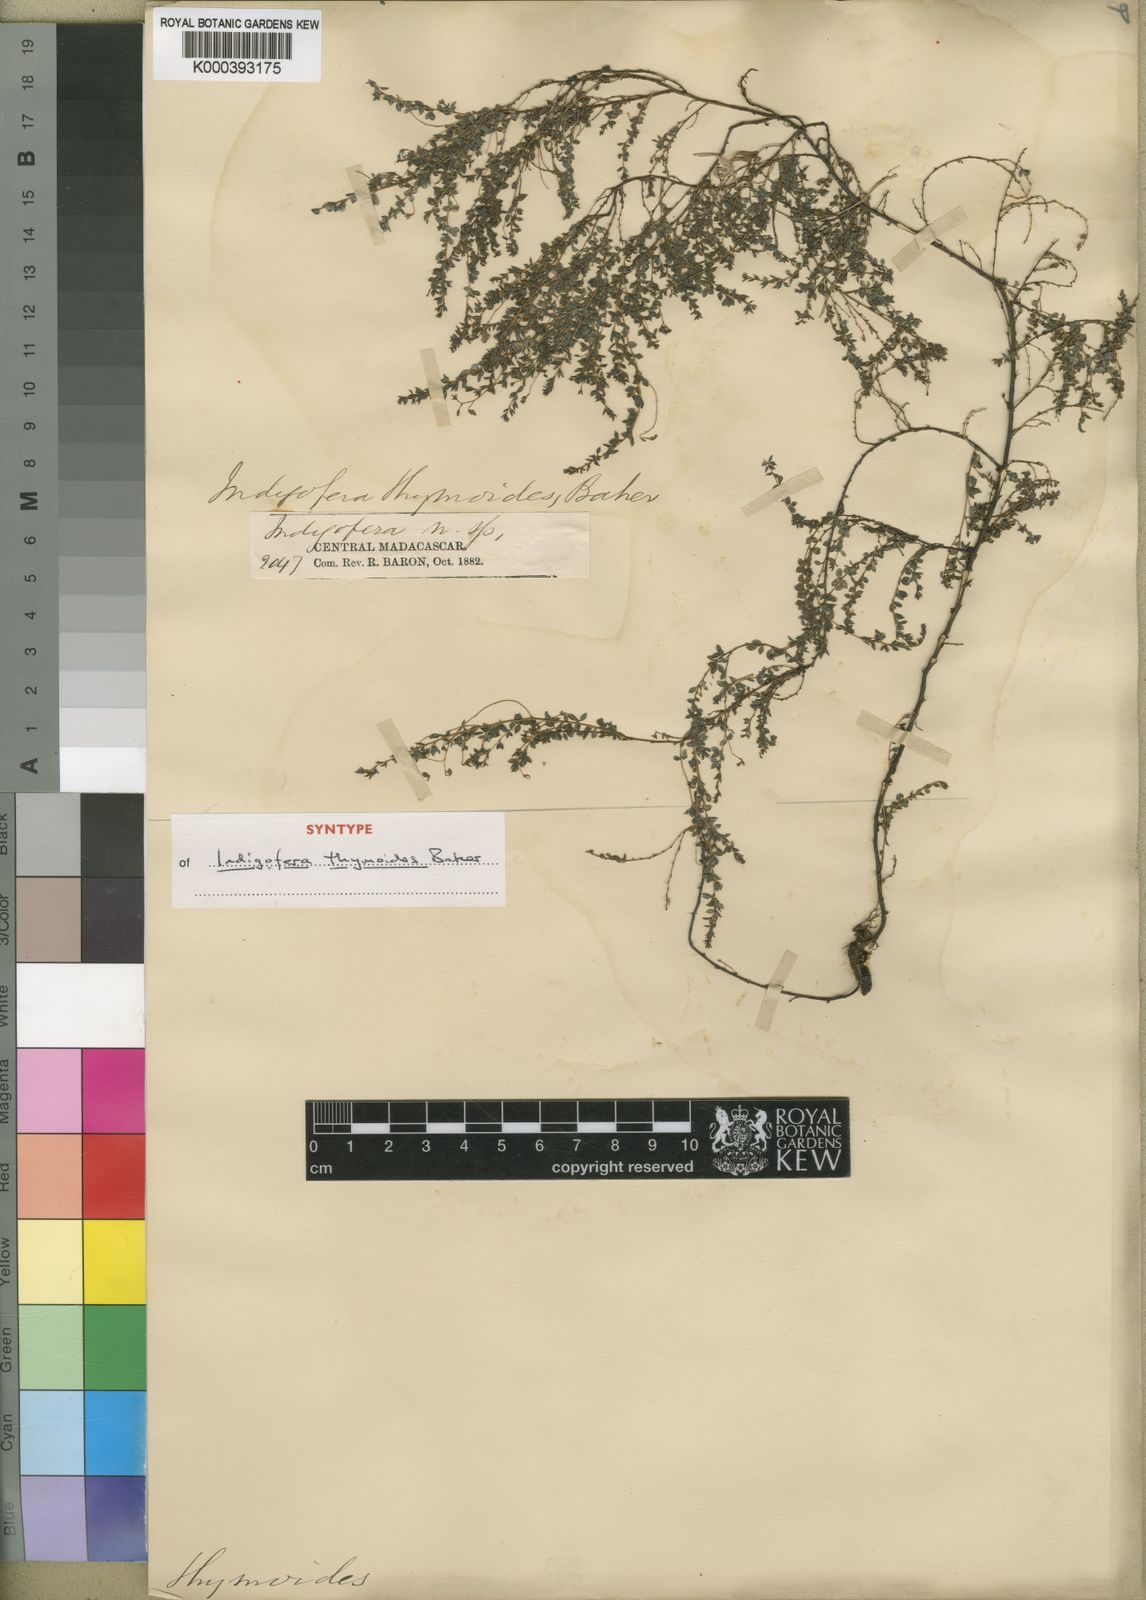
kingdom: Plantae
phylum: Tracheophyta
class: Magnoliopsida
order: Fabales
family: Fabaceae
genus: Indigofera
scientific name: Indigofera thymoides
